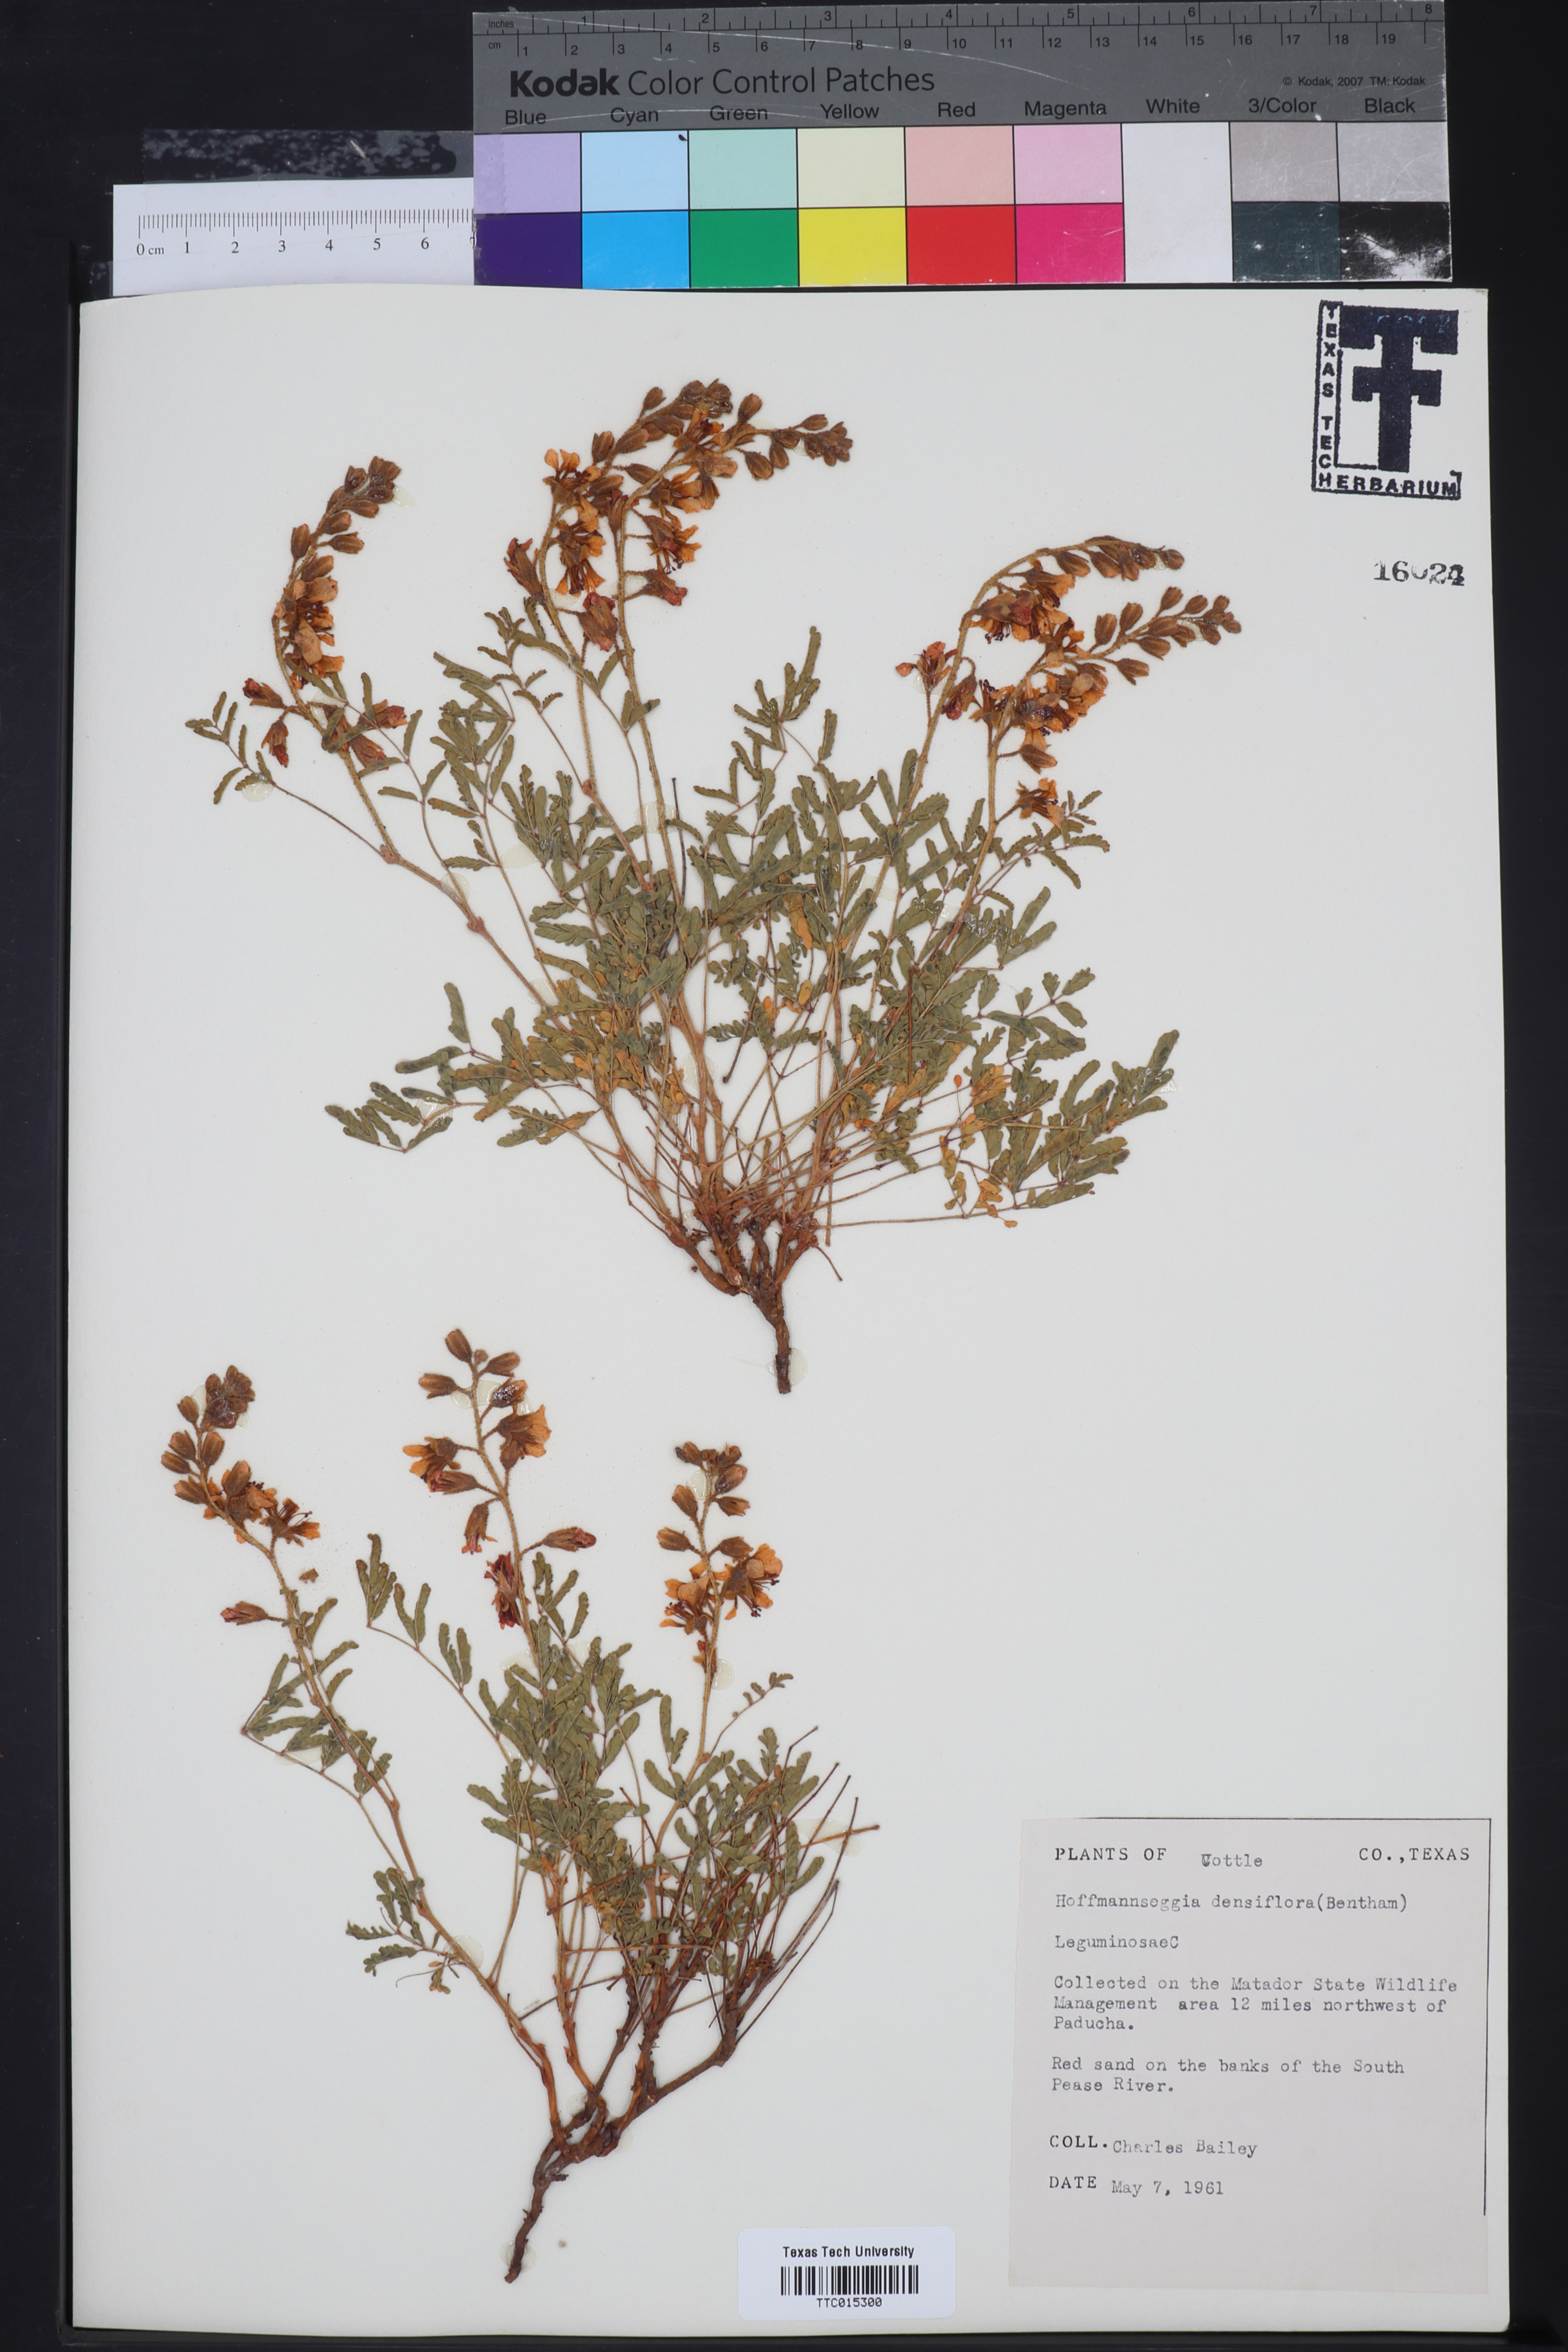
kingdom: Plantae
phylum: Tracheophyta
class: Magnoliopsida
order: Fabales
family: Fabaceae
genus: Hoffmannseggia
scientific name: Hoffmannseggia glauca
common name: Pignut
